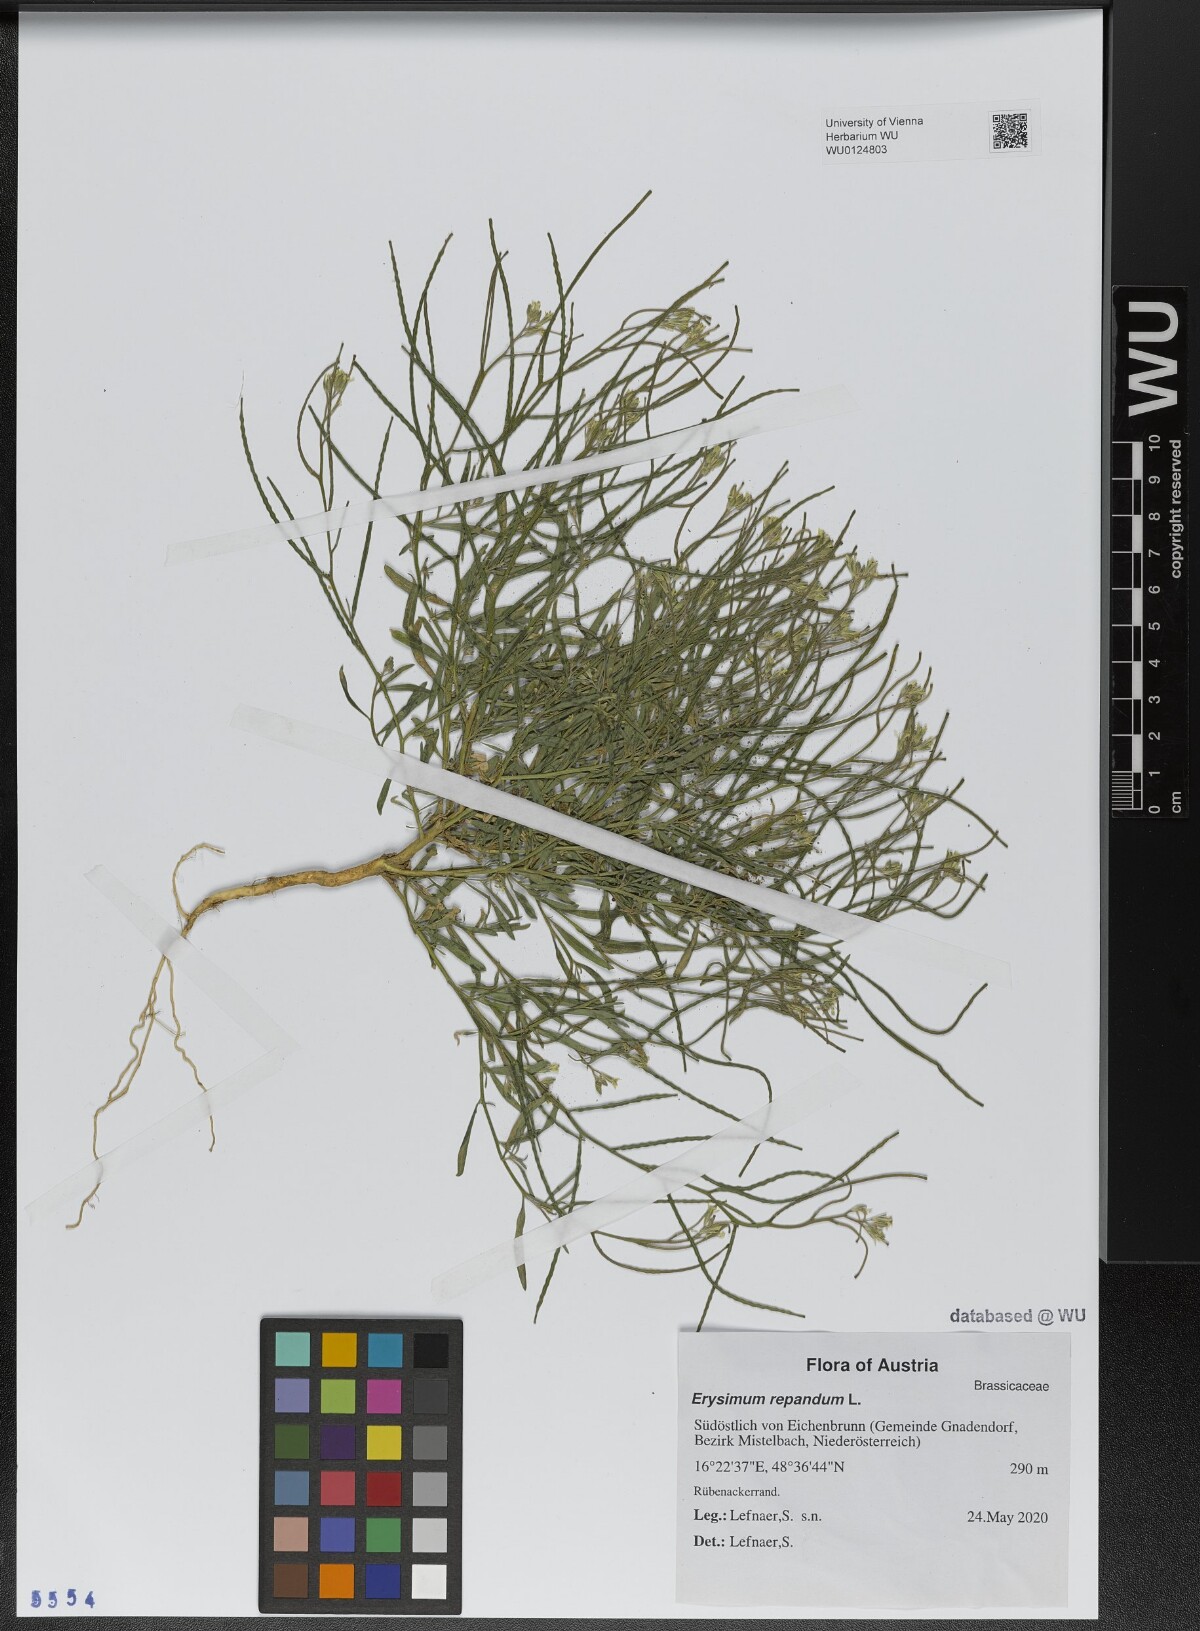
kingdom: Plantae
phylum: Tracheophyta
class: Magnoliopsida
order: Brassicales
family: Brassicaceae
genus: Erysimum
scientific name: Erysimum repandum
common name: Spreading wallflower
